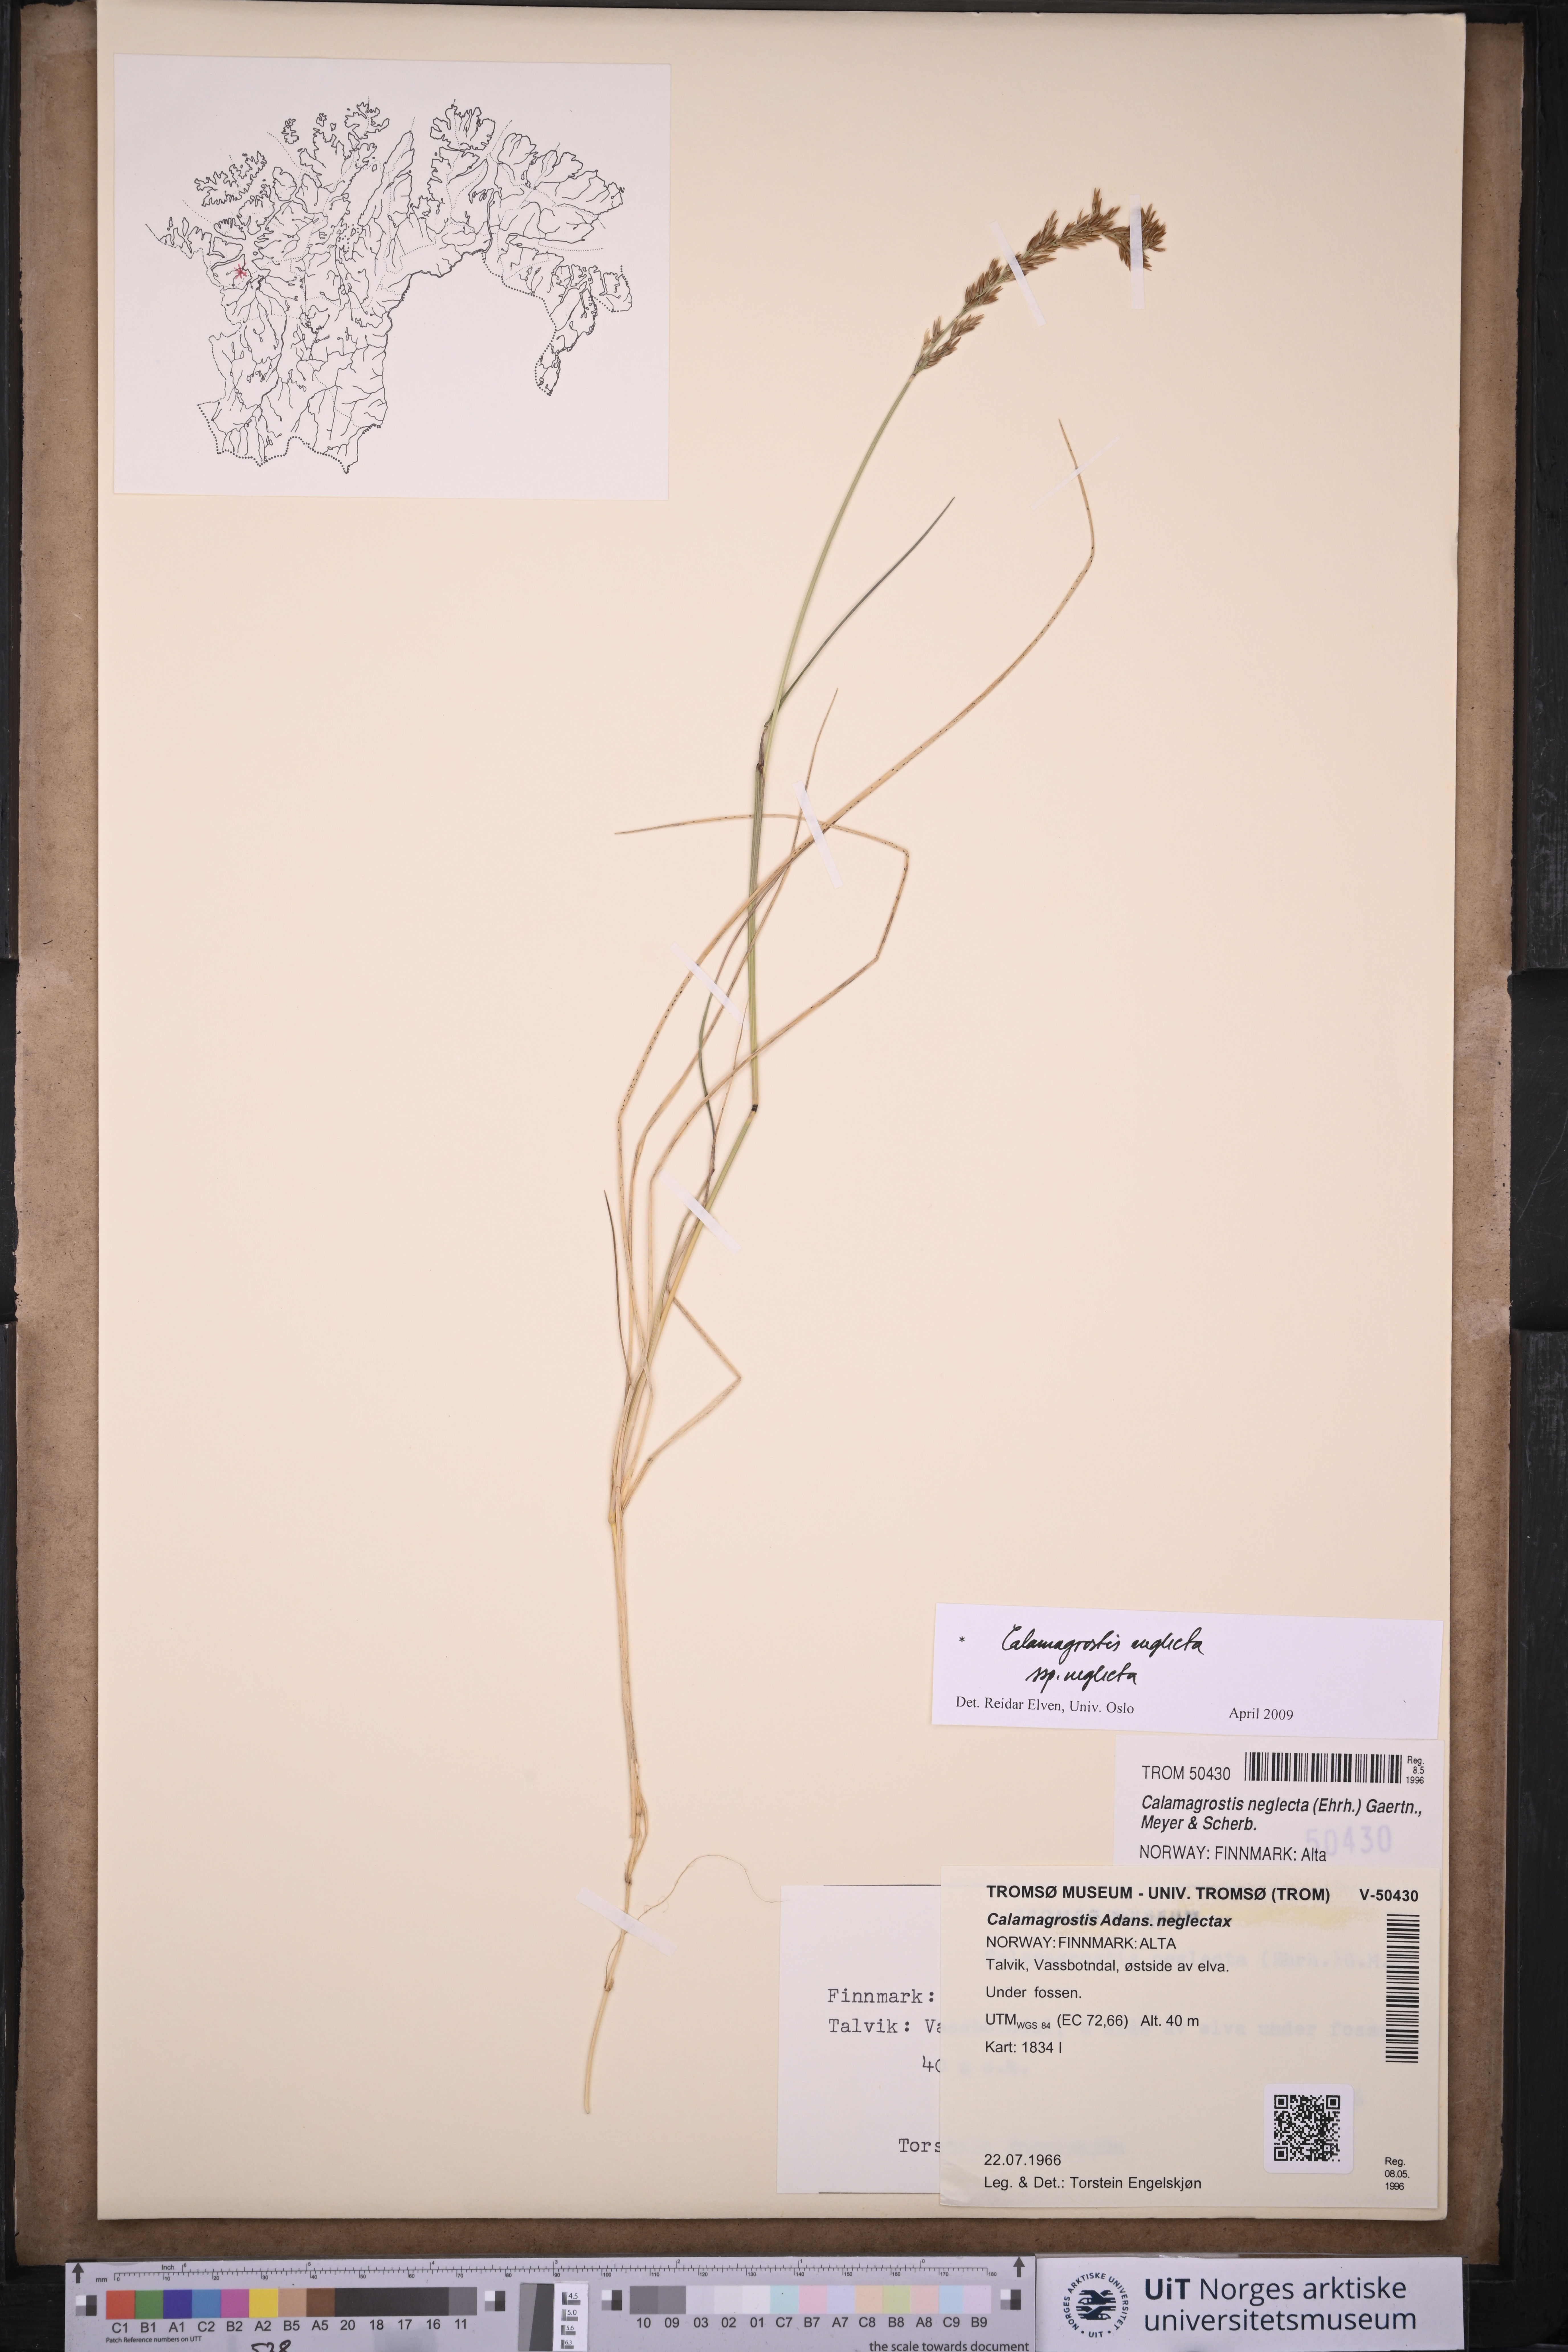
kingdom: Plantae
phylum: Tracheophyta
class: Liliopsida
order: Poales
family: Poaceae
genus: Achnatherum
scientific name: Achnatherum calamagrostis
